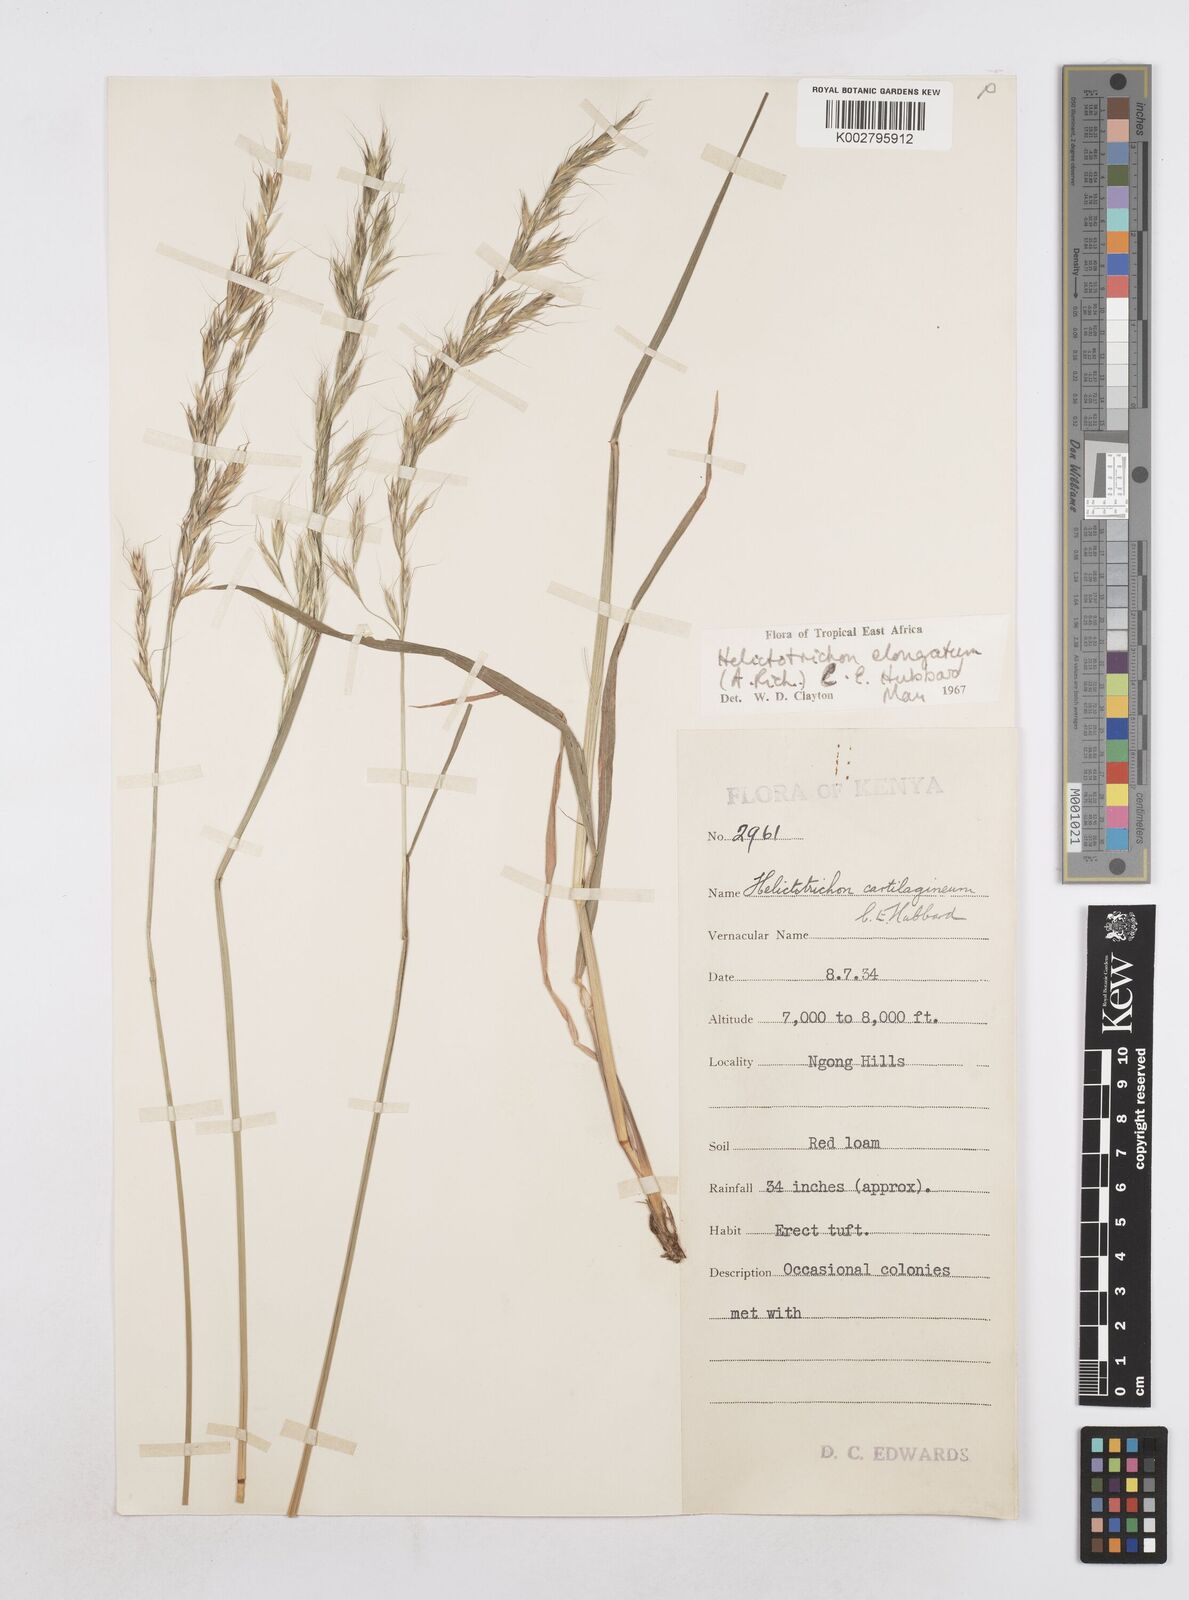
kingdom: Plantae
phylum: Tracheophyta
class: Liliopsida
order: Poales
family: Poaceae
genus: Trisetopsis
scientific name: Trisetopsis elongata
